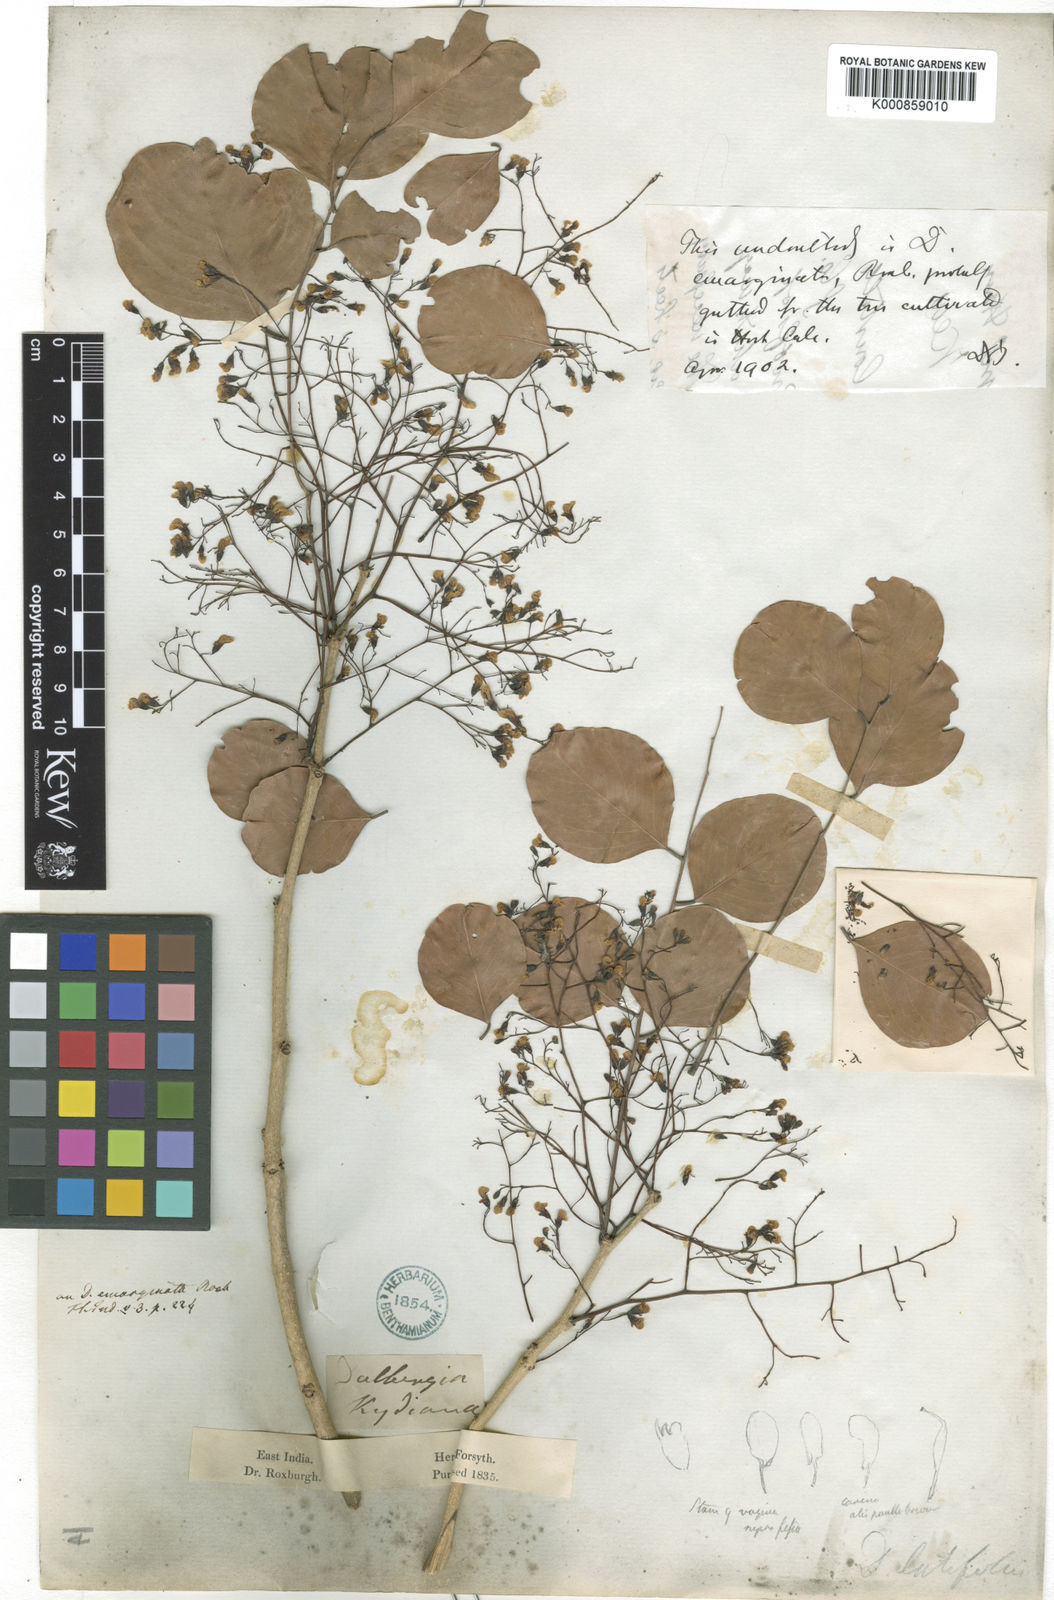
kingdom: Plantae
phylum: Tracheophyta
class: Magnoliopsida
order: Fabales
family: Fabaceae
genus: Dalbergia
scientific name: Dalbergia
